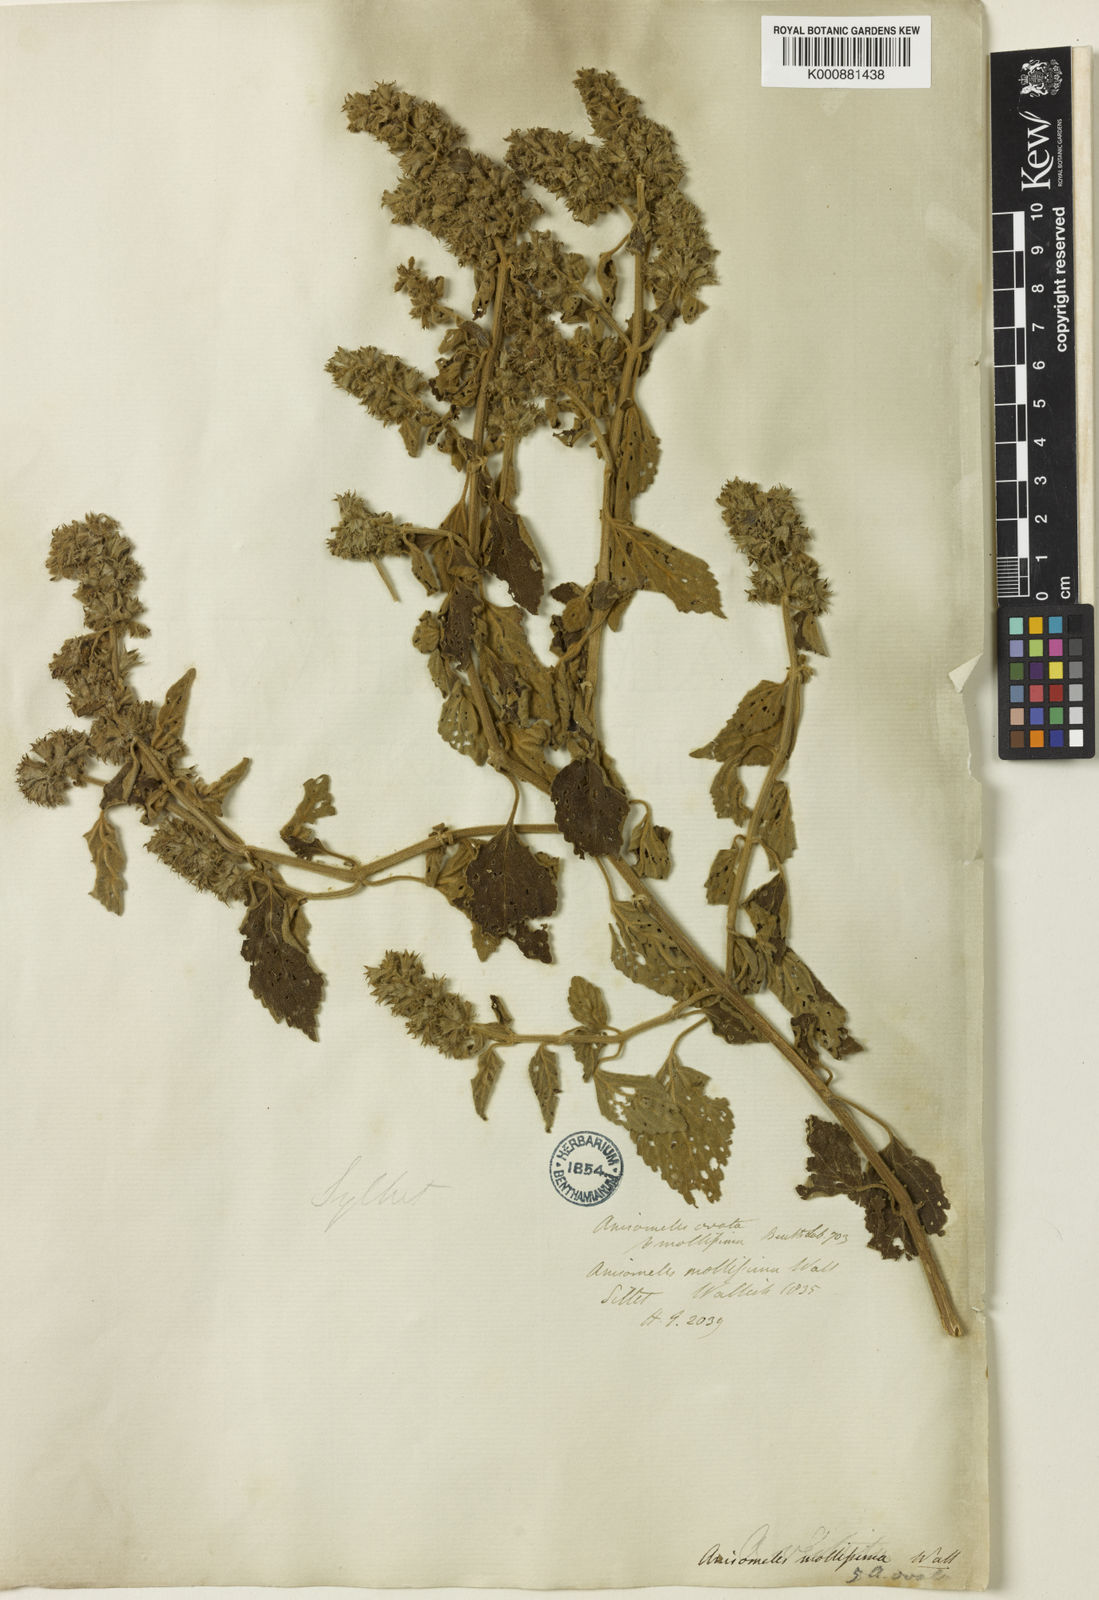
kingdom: Plantae
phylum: Tracheophyta
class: Magnoliopsida
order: Lamiales
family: Lamiaceae
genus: Anisomeles
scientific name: Anisomeles indica
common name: Catmint
